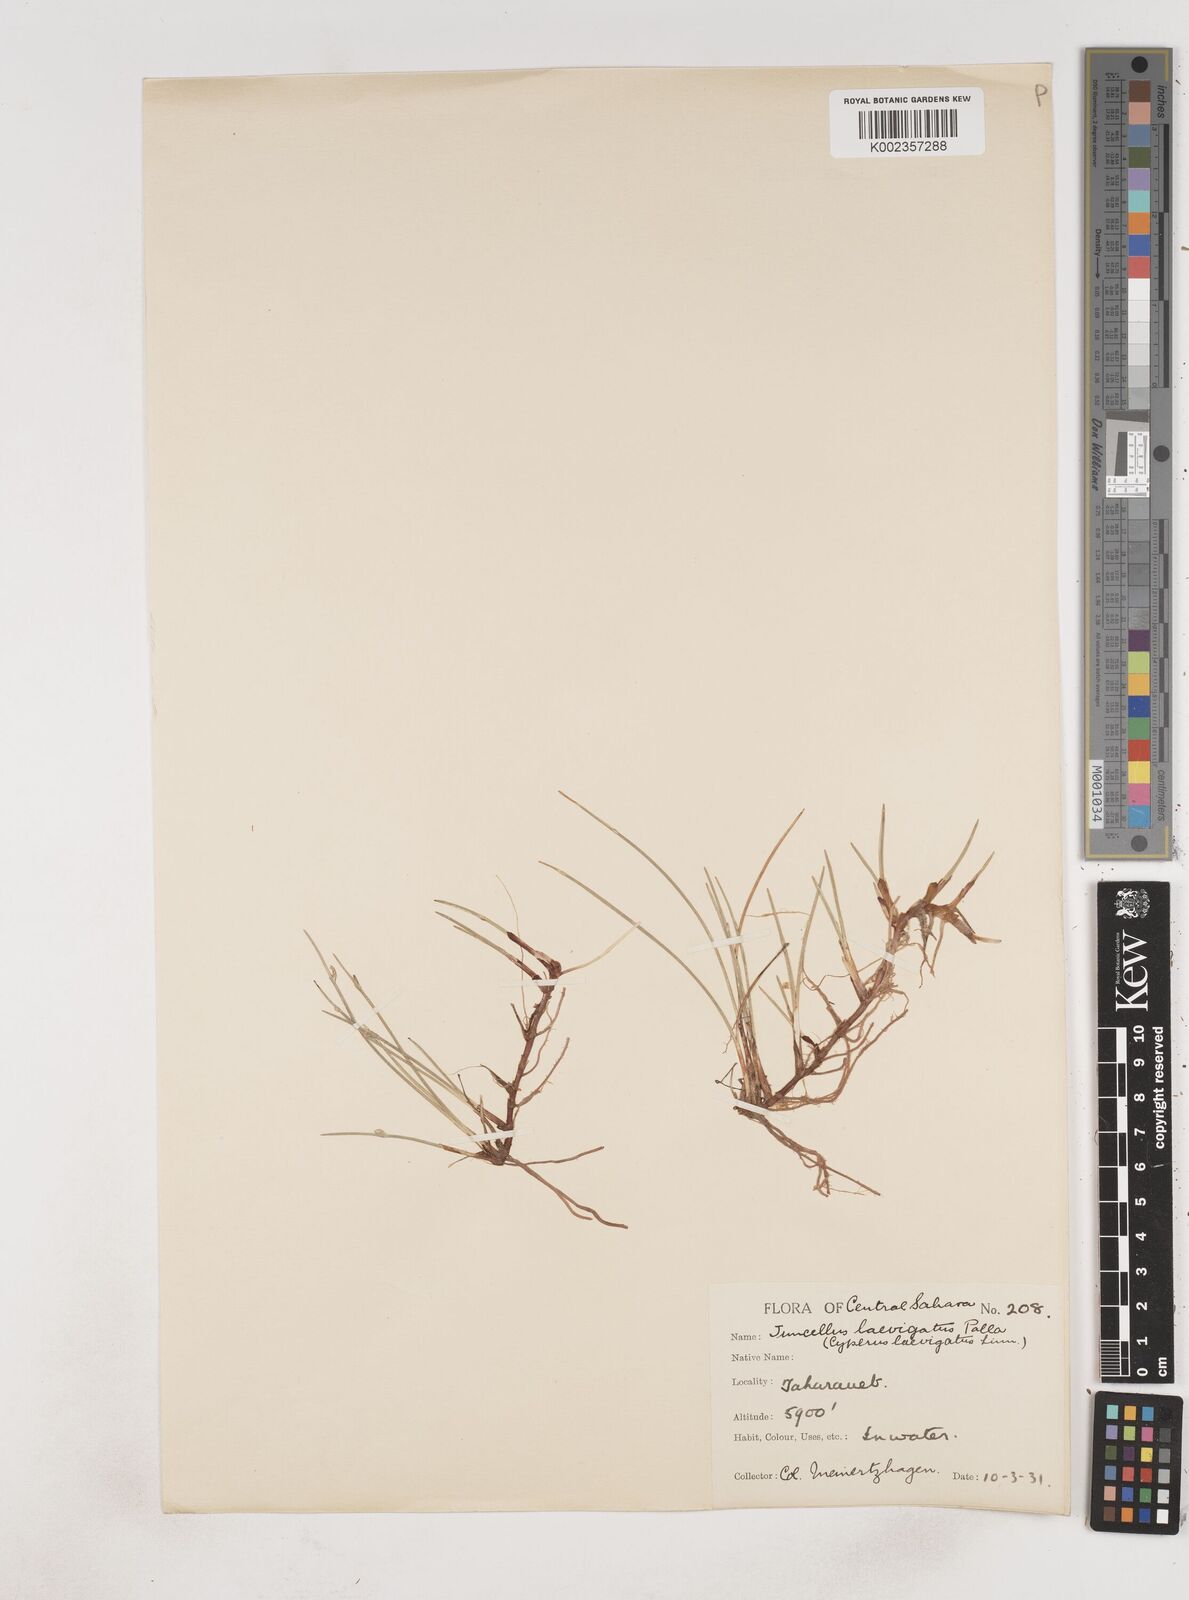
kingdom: Plantae
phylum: Tracheophyta
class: Liliopsida
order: Poales
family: Cyperaceae
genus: Cyperus
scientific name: Cyperus
